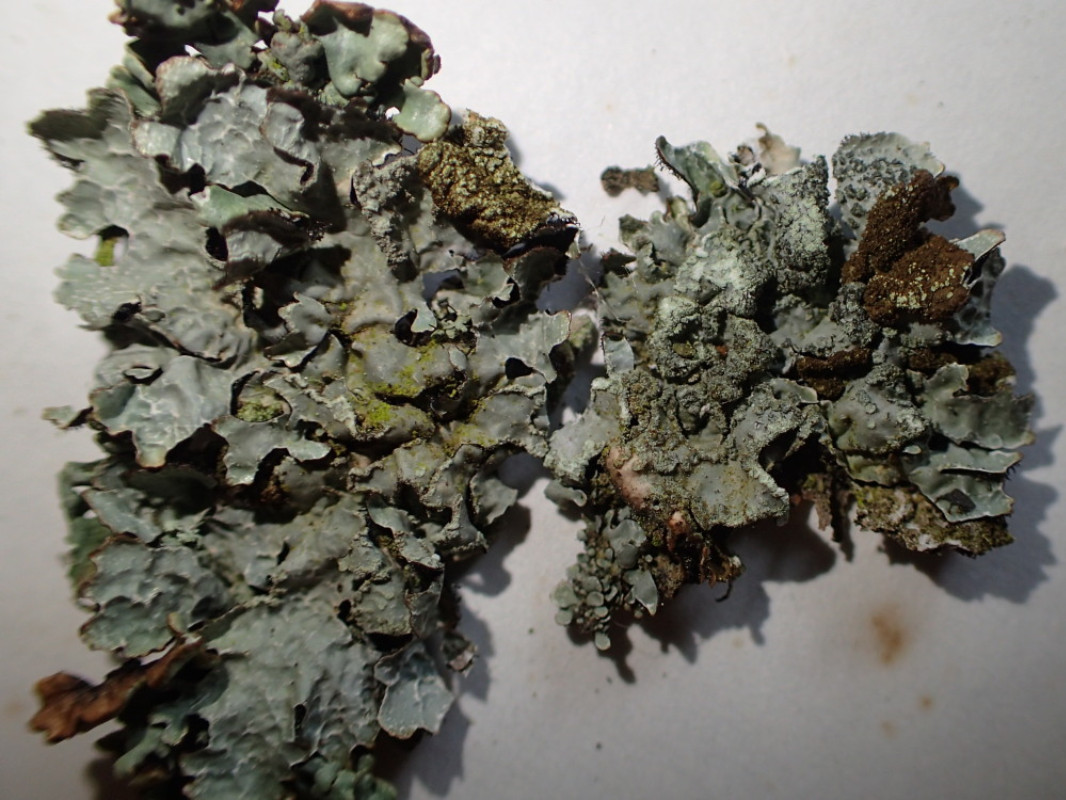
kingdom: Fungi
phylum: Ascomycota
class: Lecanoromycetes
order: Lecanorales
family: Parmeliaceae
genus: Parmelia
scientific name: Parmelia sulcata
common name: rynket skållav
